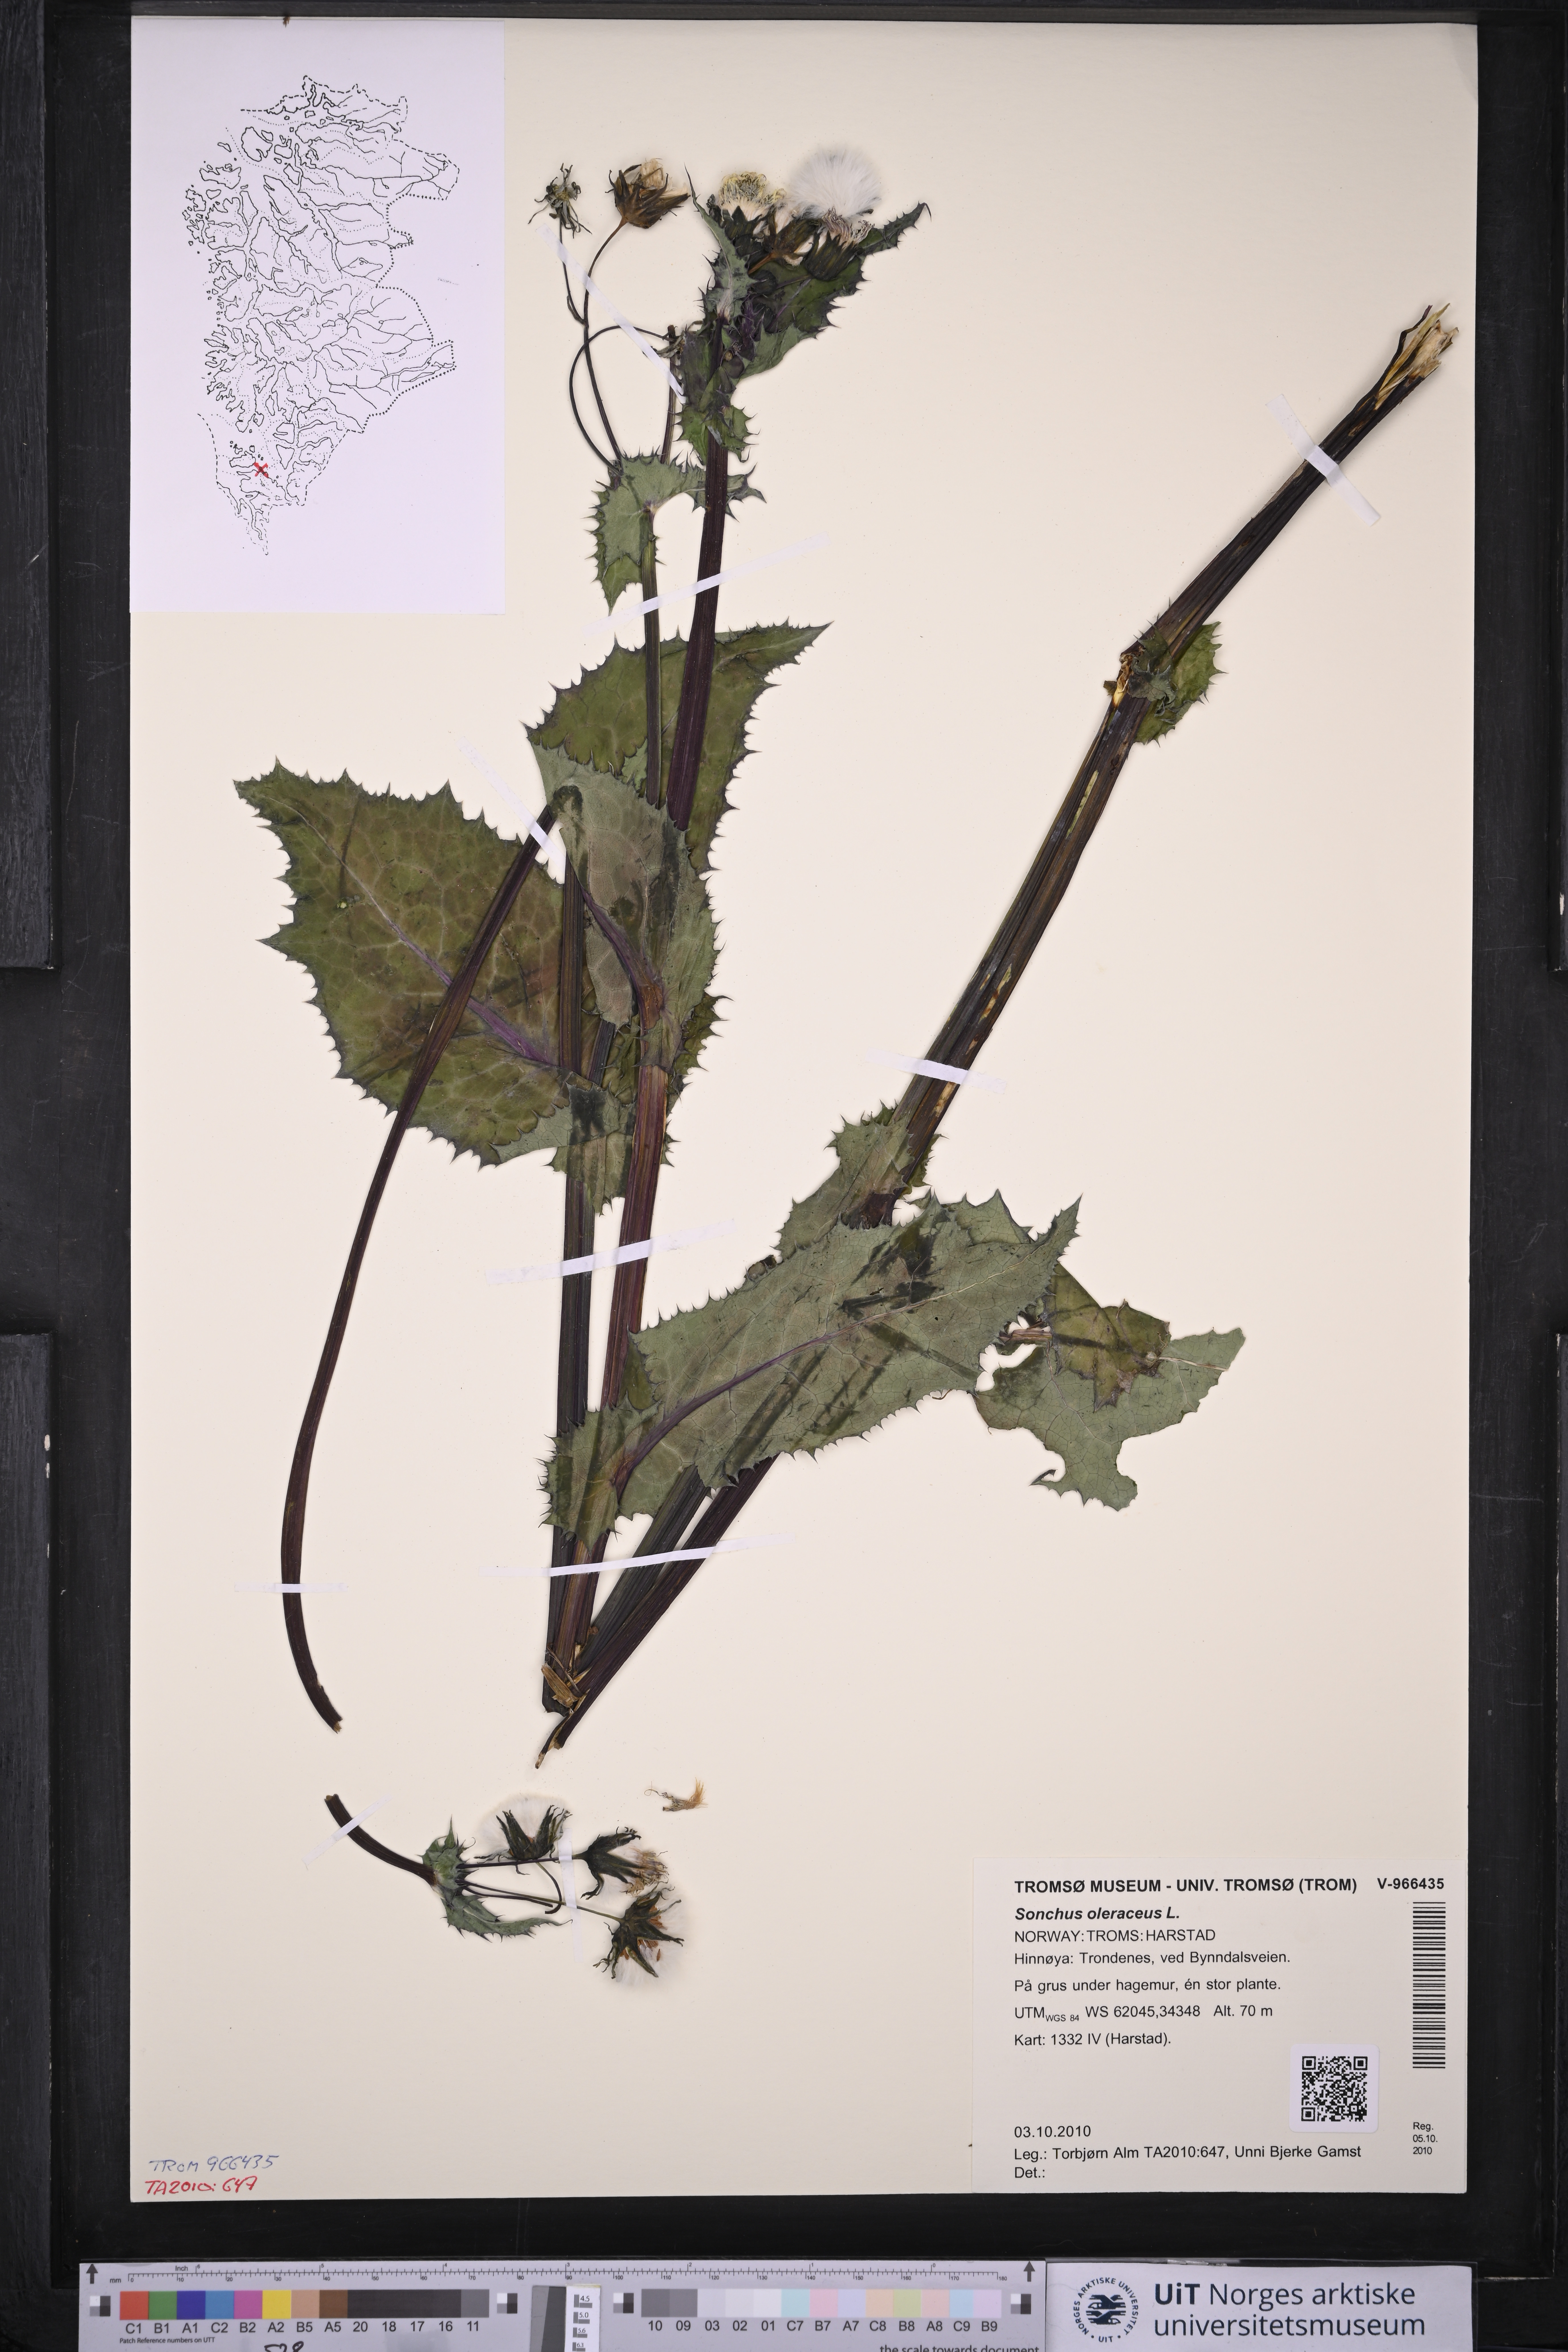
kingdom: Plantae
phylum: Tracheophyta
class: Magnoliopsida
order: Asterales
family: Asteraceae
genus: Sonchus
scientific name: Sonchus oleraceus
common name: Common sowthistle
